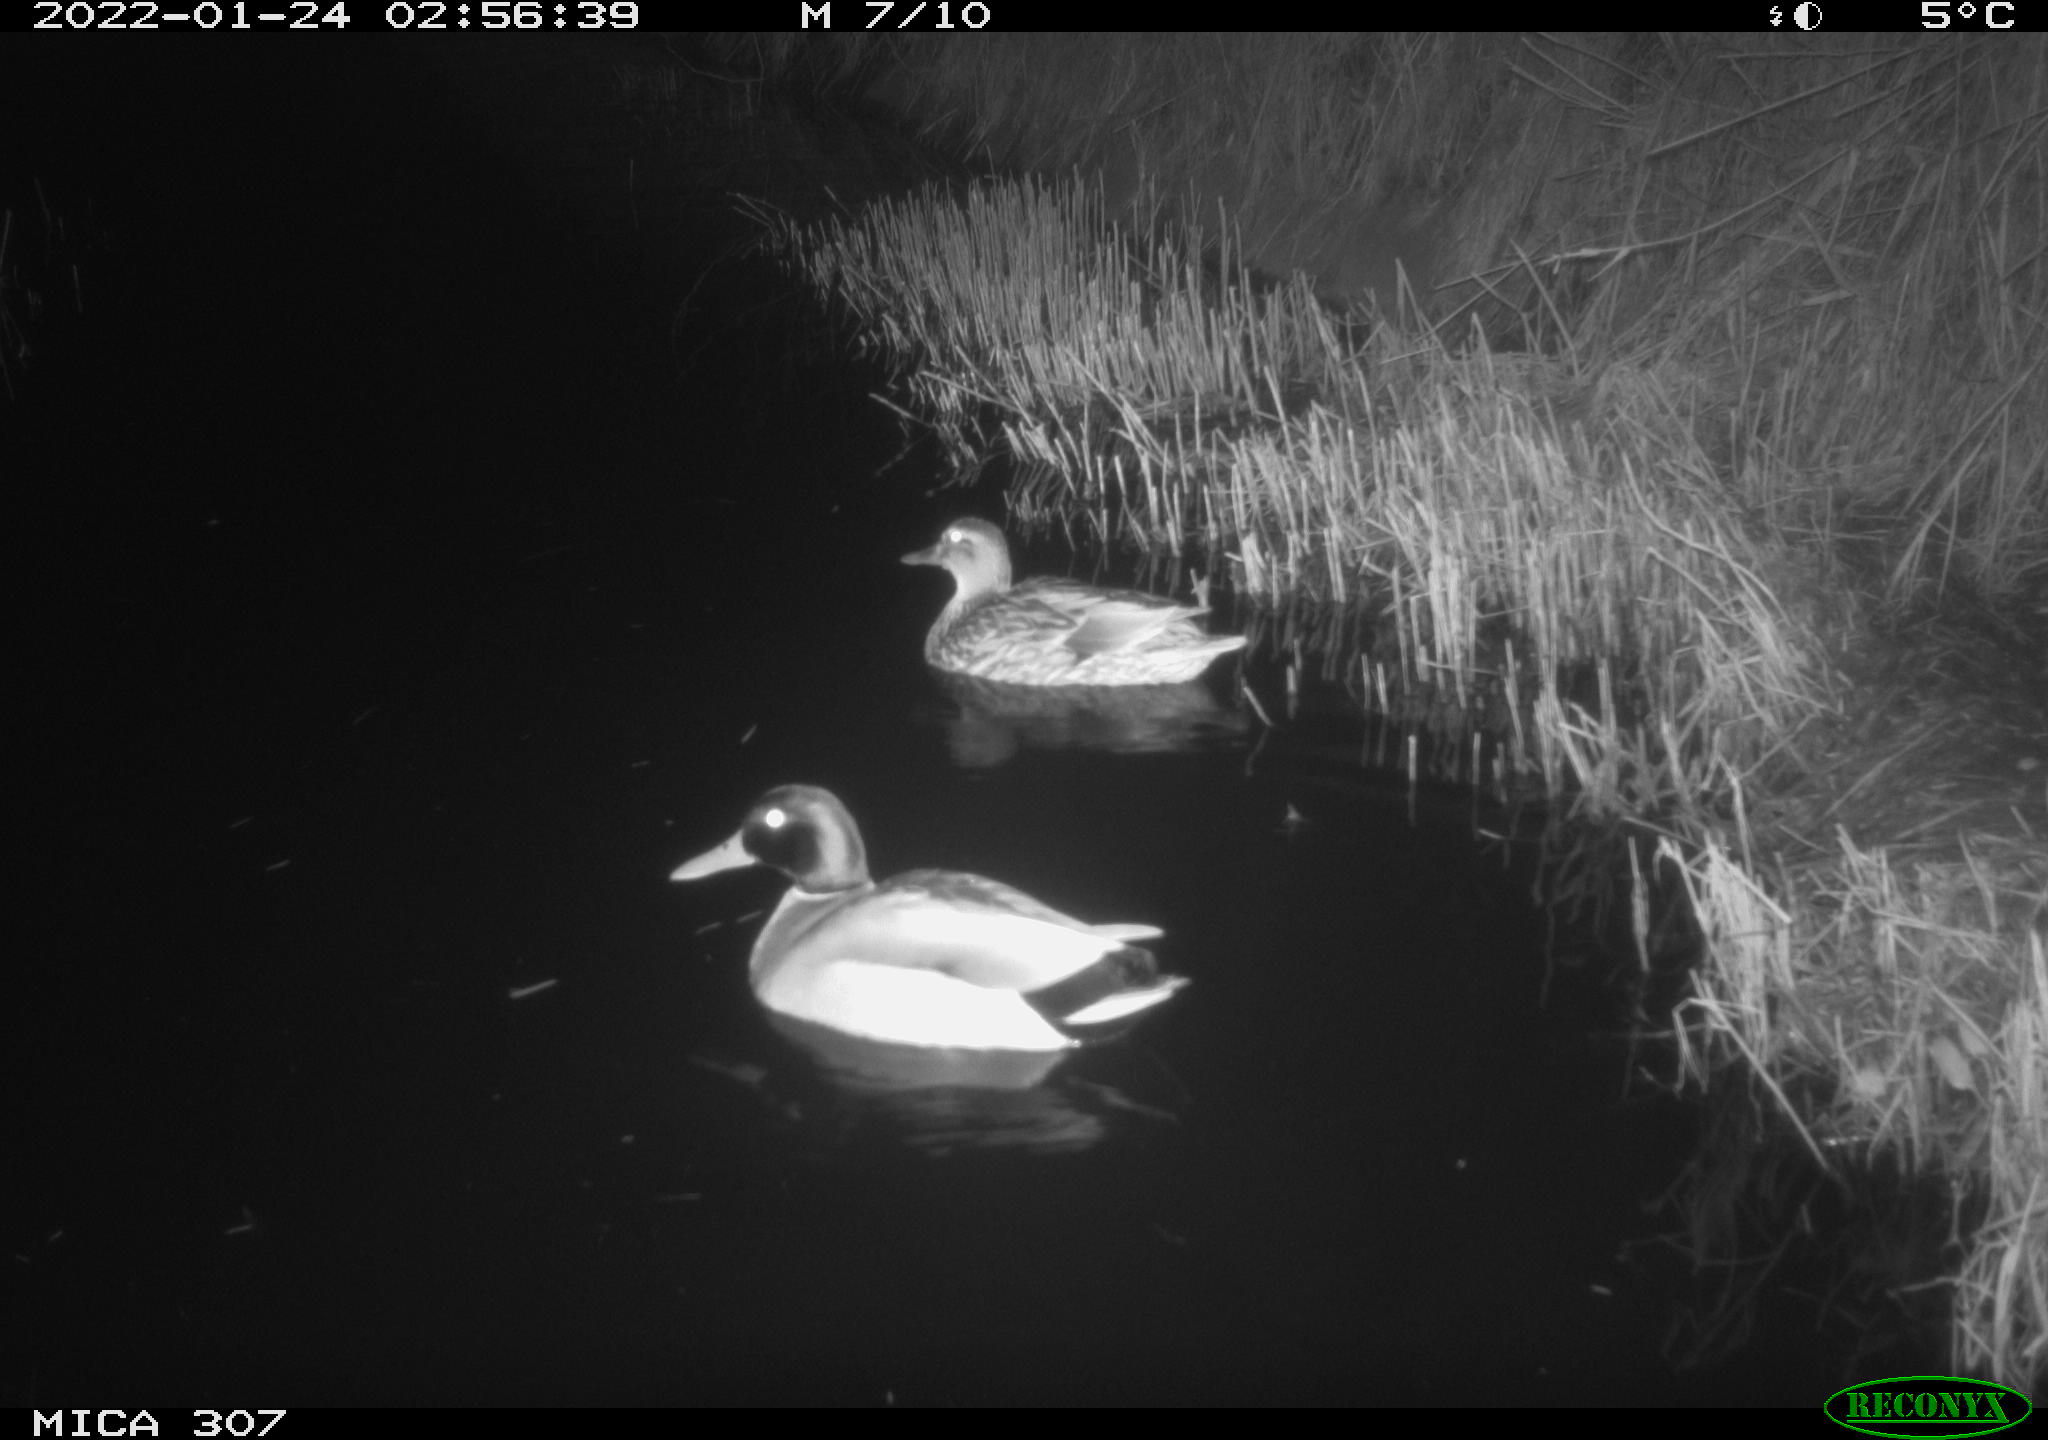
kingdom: Animalia
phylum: Chordata
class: Aves
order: Anseriformes
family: Anatidae
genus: Anas
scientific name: Anas
